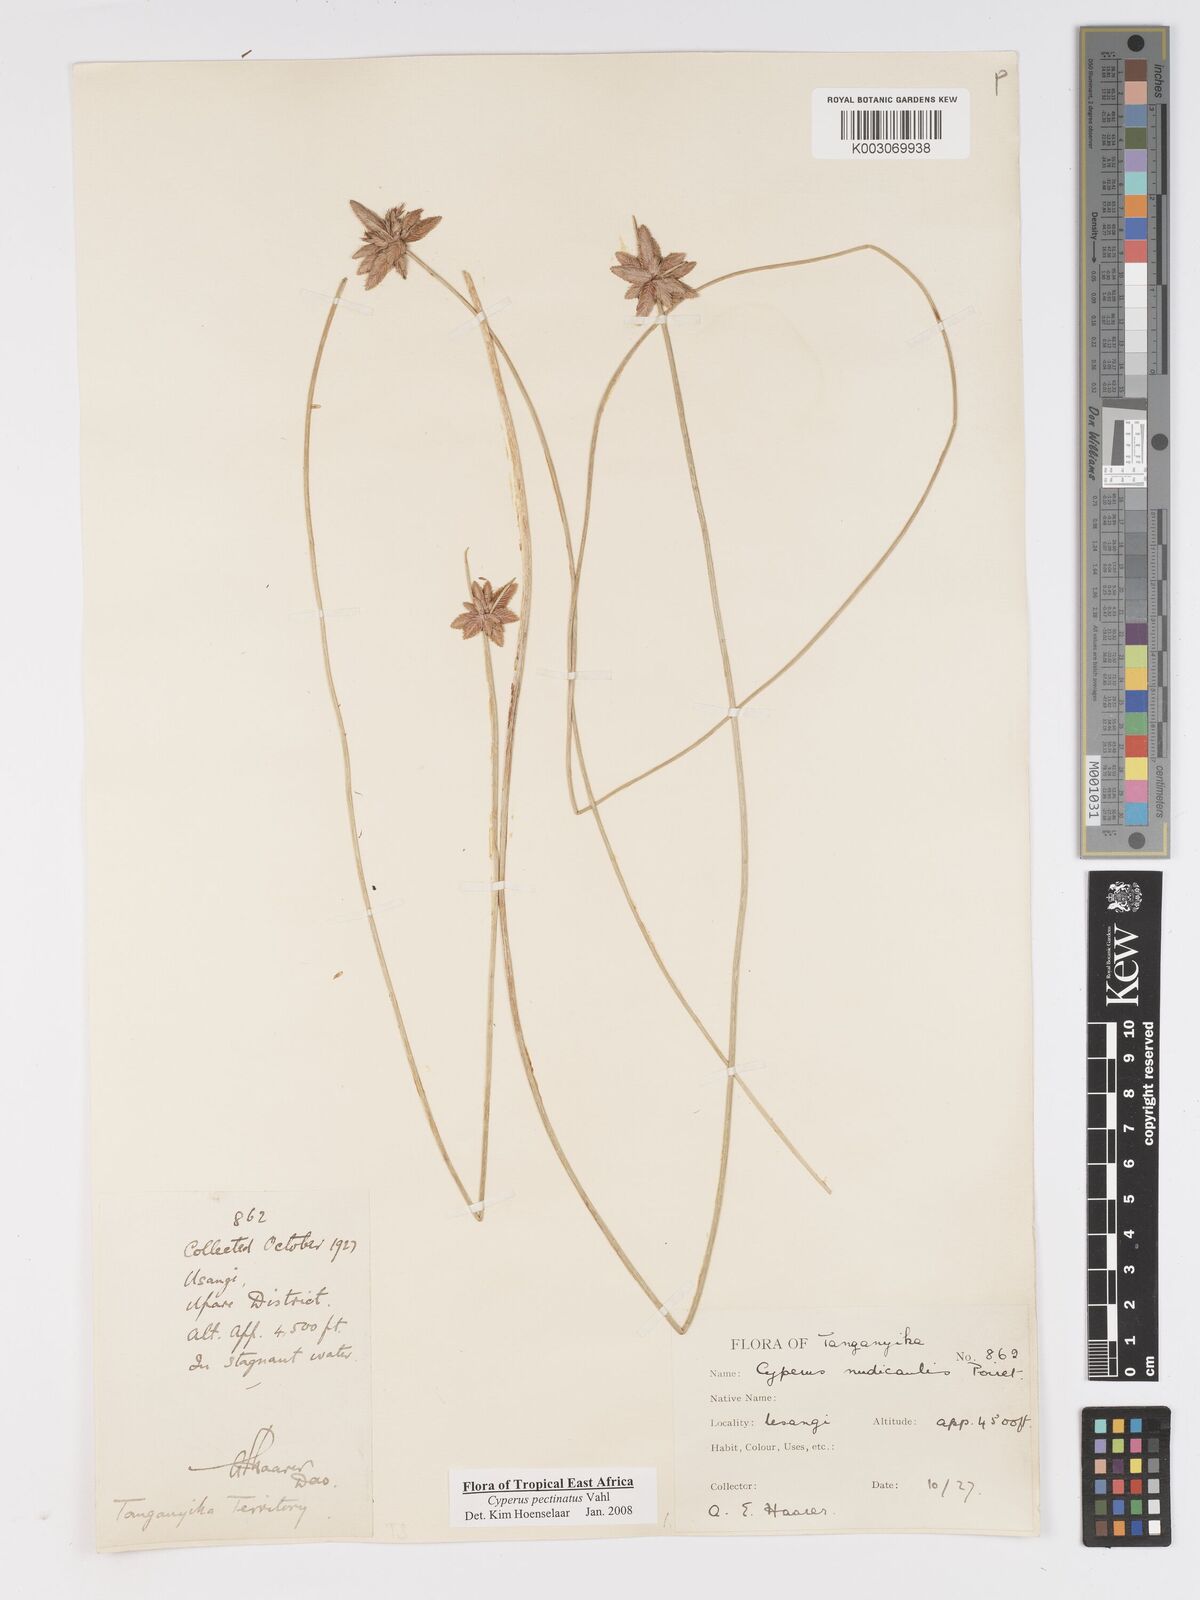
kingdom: Plantae
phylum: Tracheophyta
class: Liliopsida
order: Poales
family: Cyperaceae
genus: Cyperus
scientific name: Cyperus pectinatus
